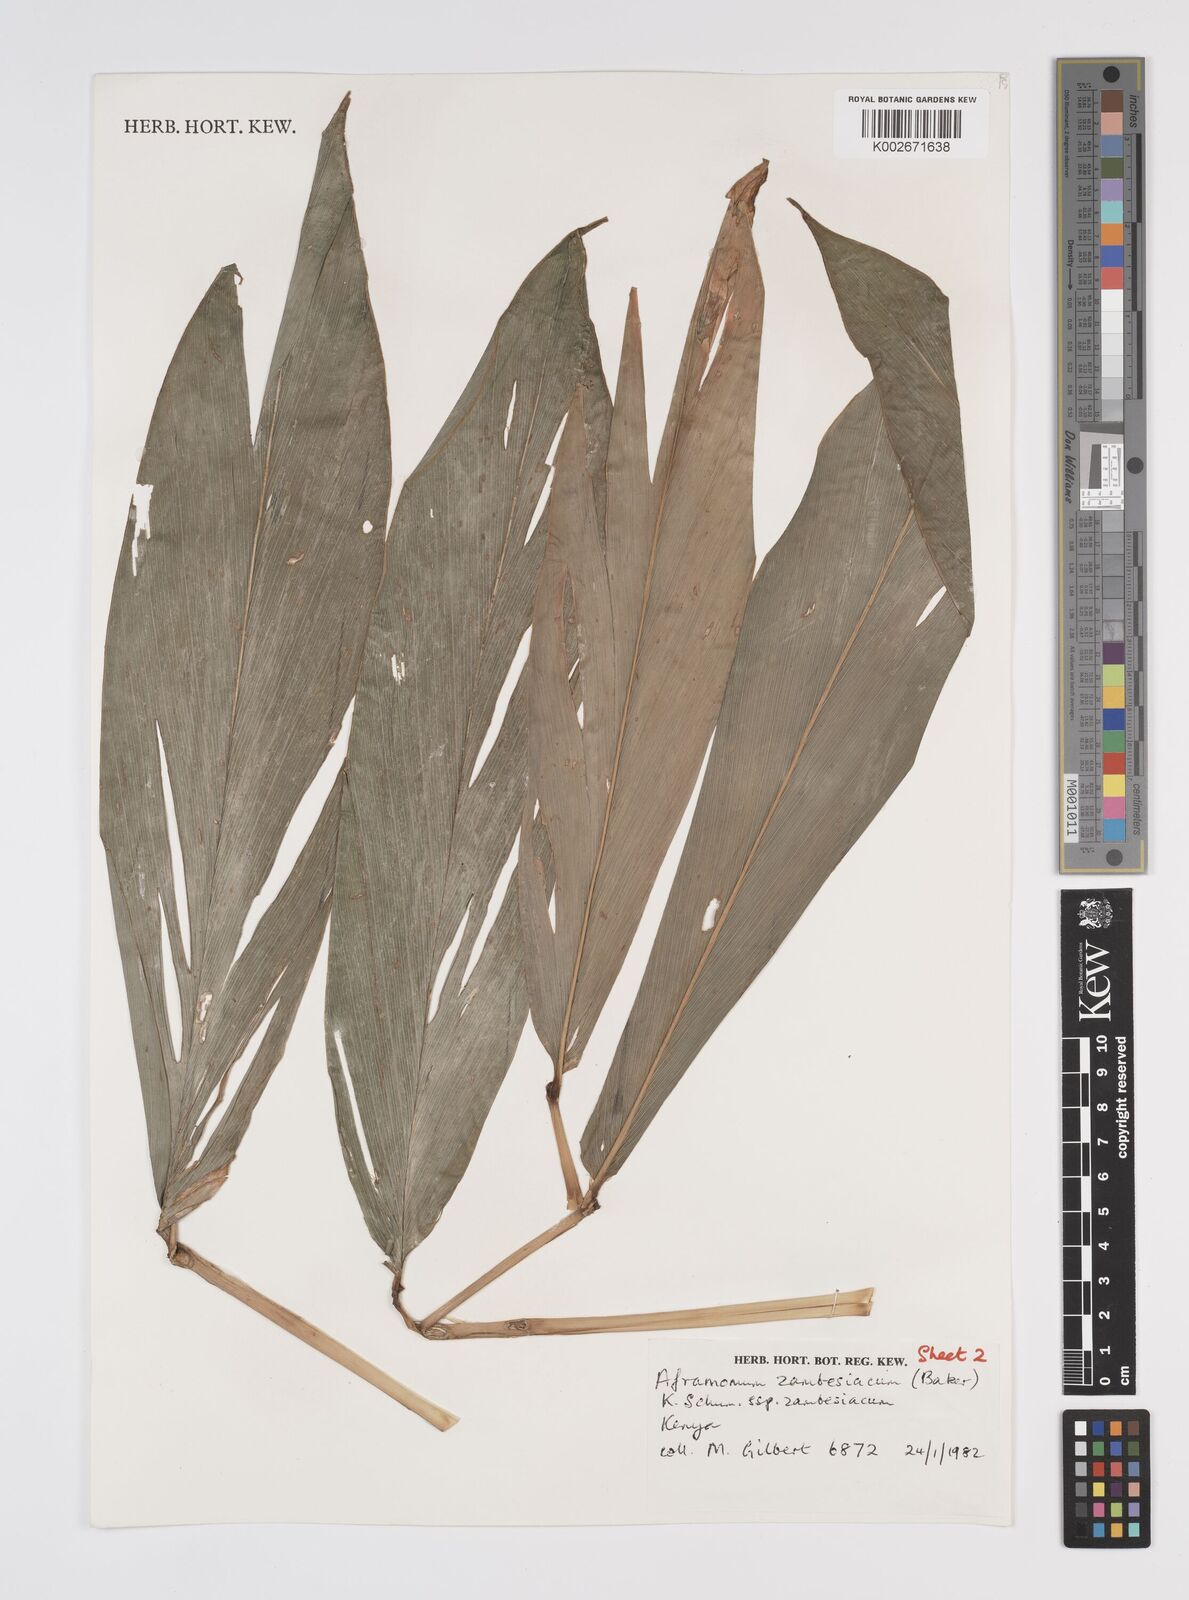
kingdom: Plantae
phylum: Tracheophyta
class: Liliopsida
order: Zingiberales
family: Zingiberaceae
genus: Aframomum
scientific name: Aframomum zambesiacum
